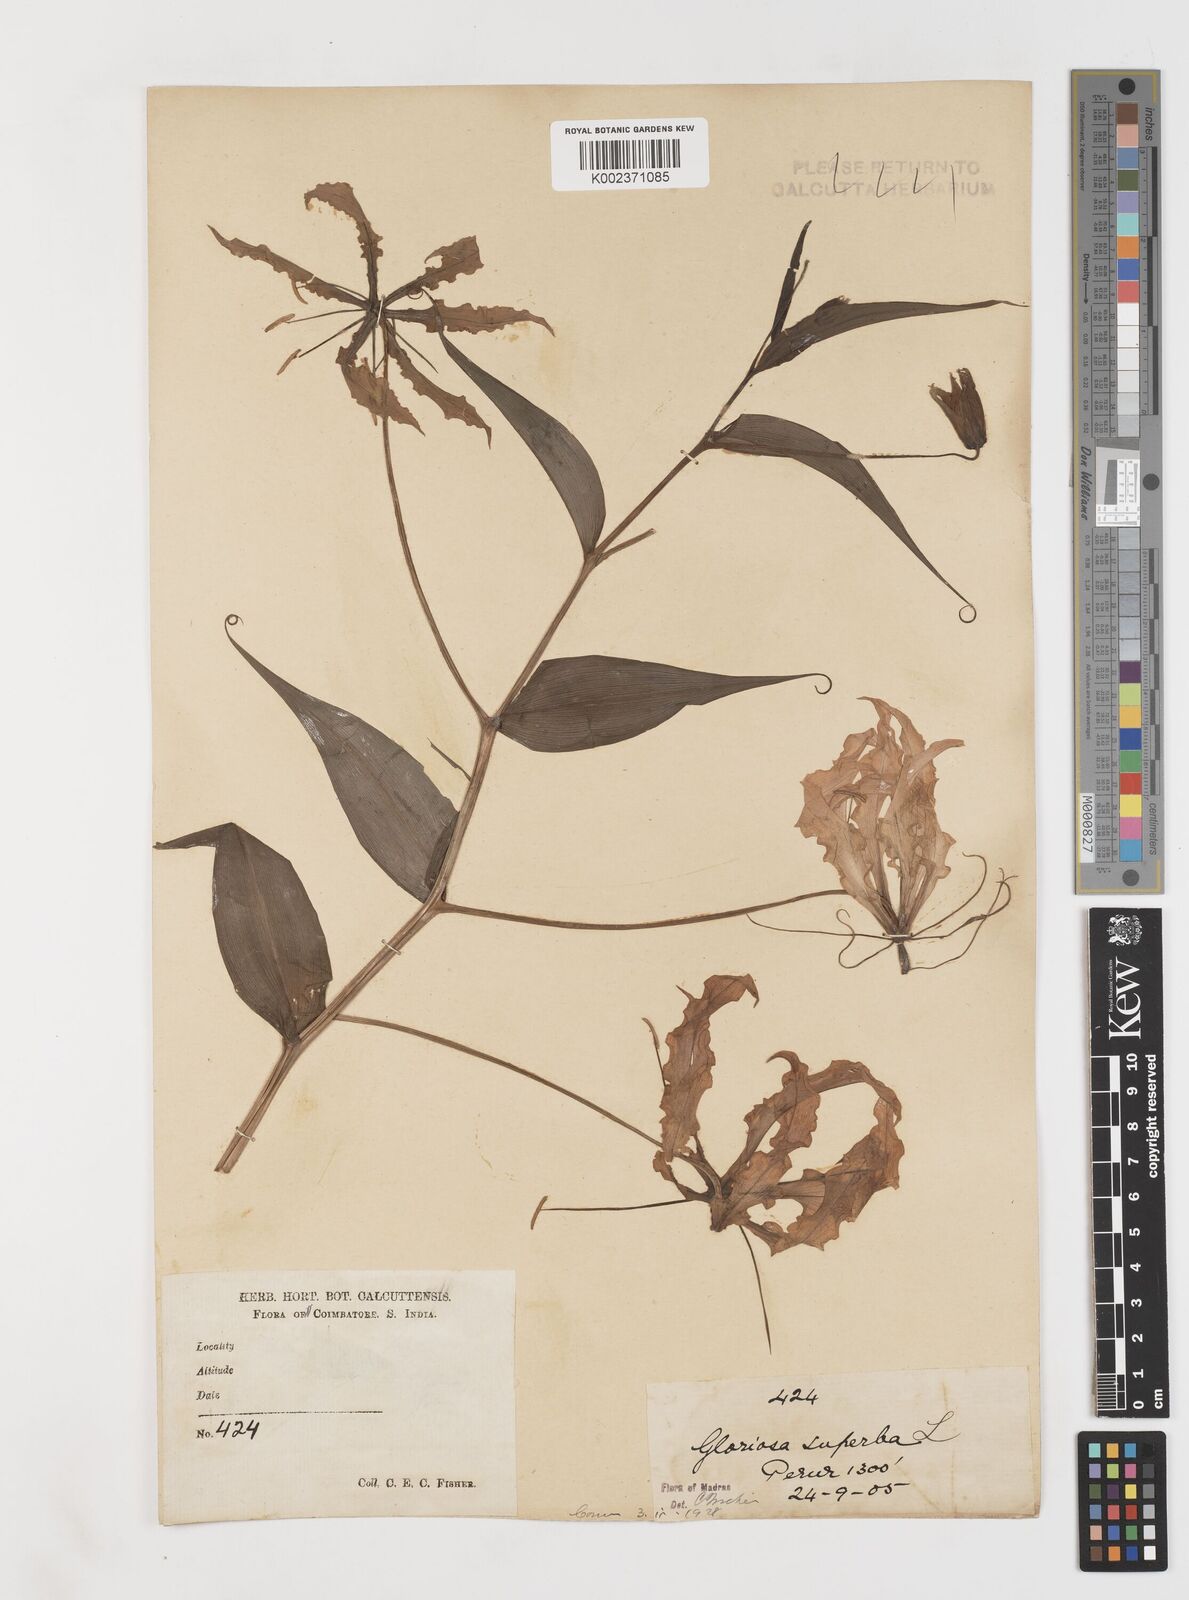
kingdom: Plantae
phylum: Tracheophyta
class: Liliopsida
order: Liliales
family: Colchicaceae
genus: Gloriosa
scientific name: Gloriosa superba
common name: Flame lily
